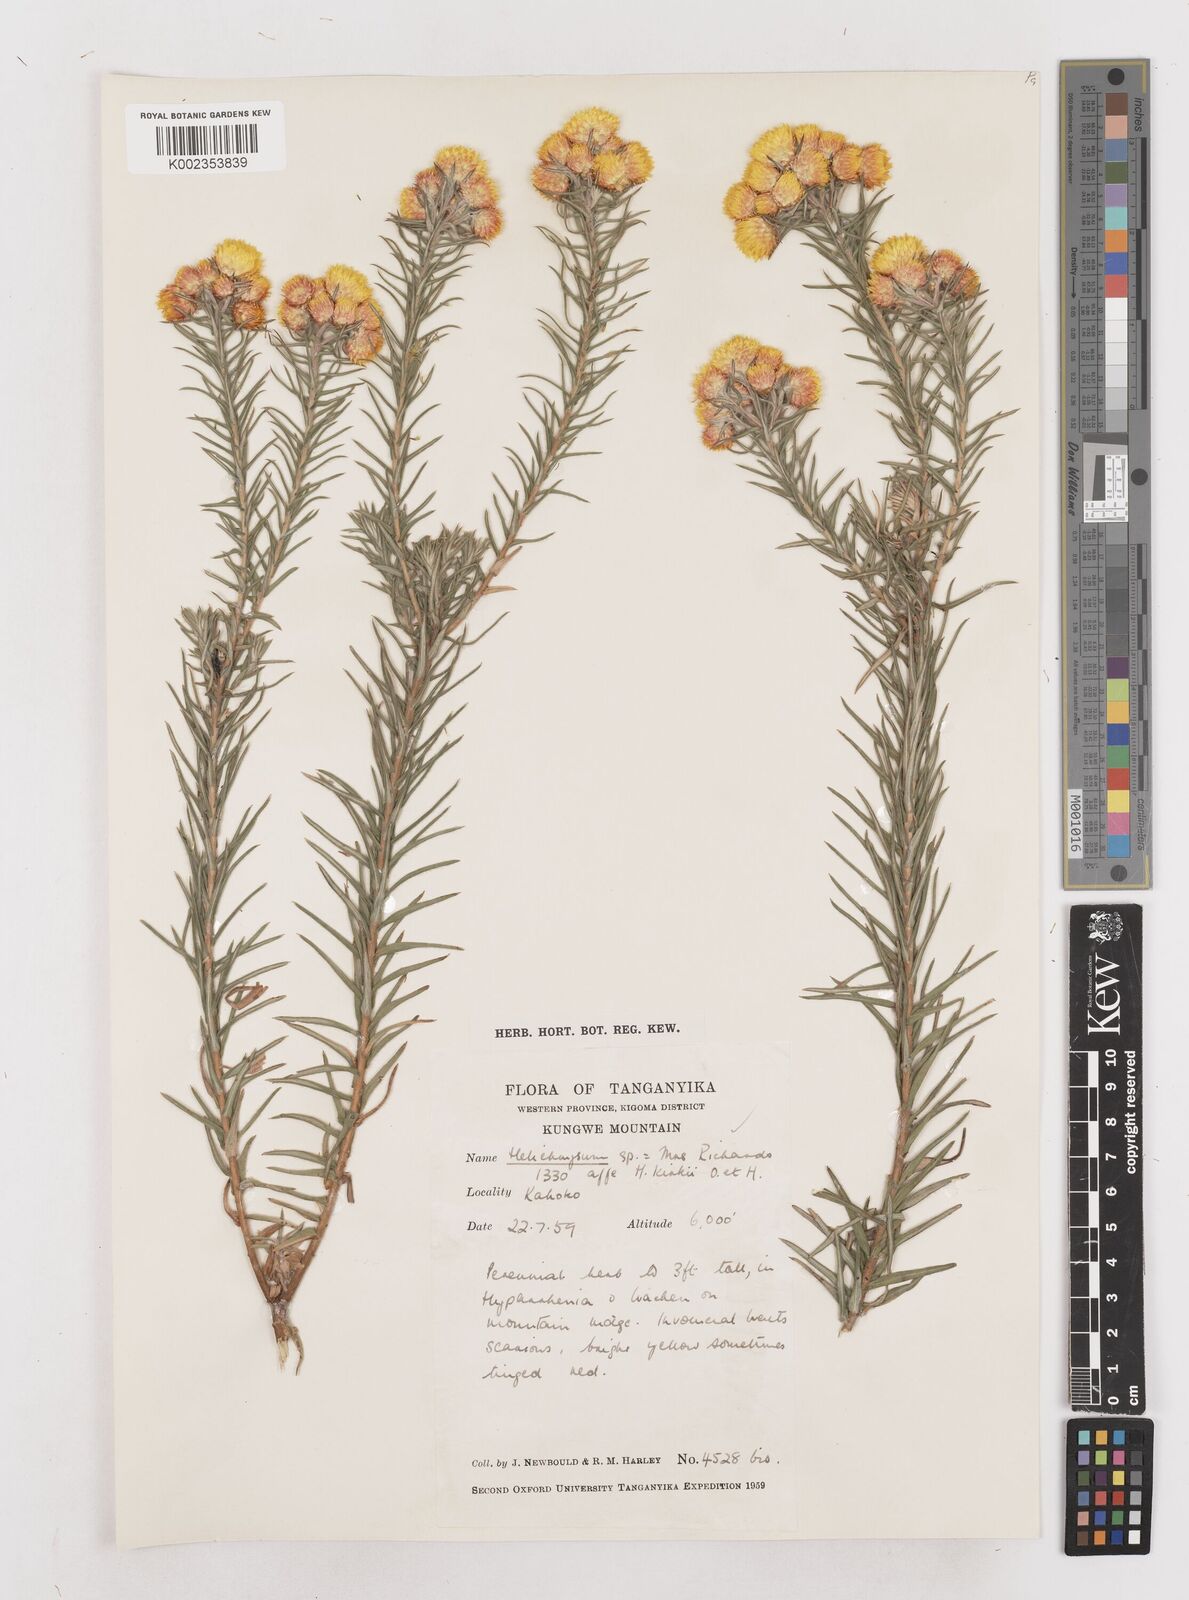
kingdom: Plantae
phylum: Tracheophyta
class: Magnoliopsida
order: Asterales
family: Asteraceae
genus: Helichrysum
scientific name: Helichrysum kirkii
